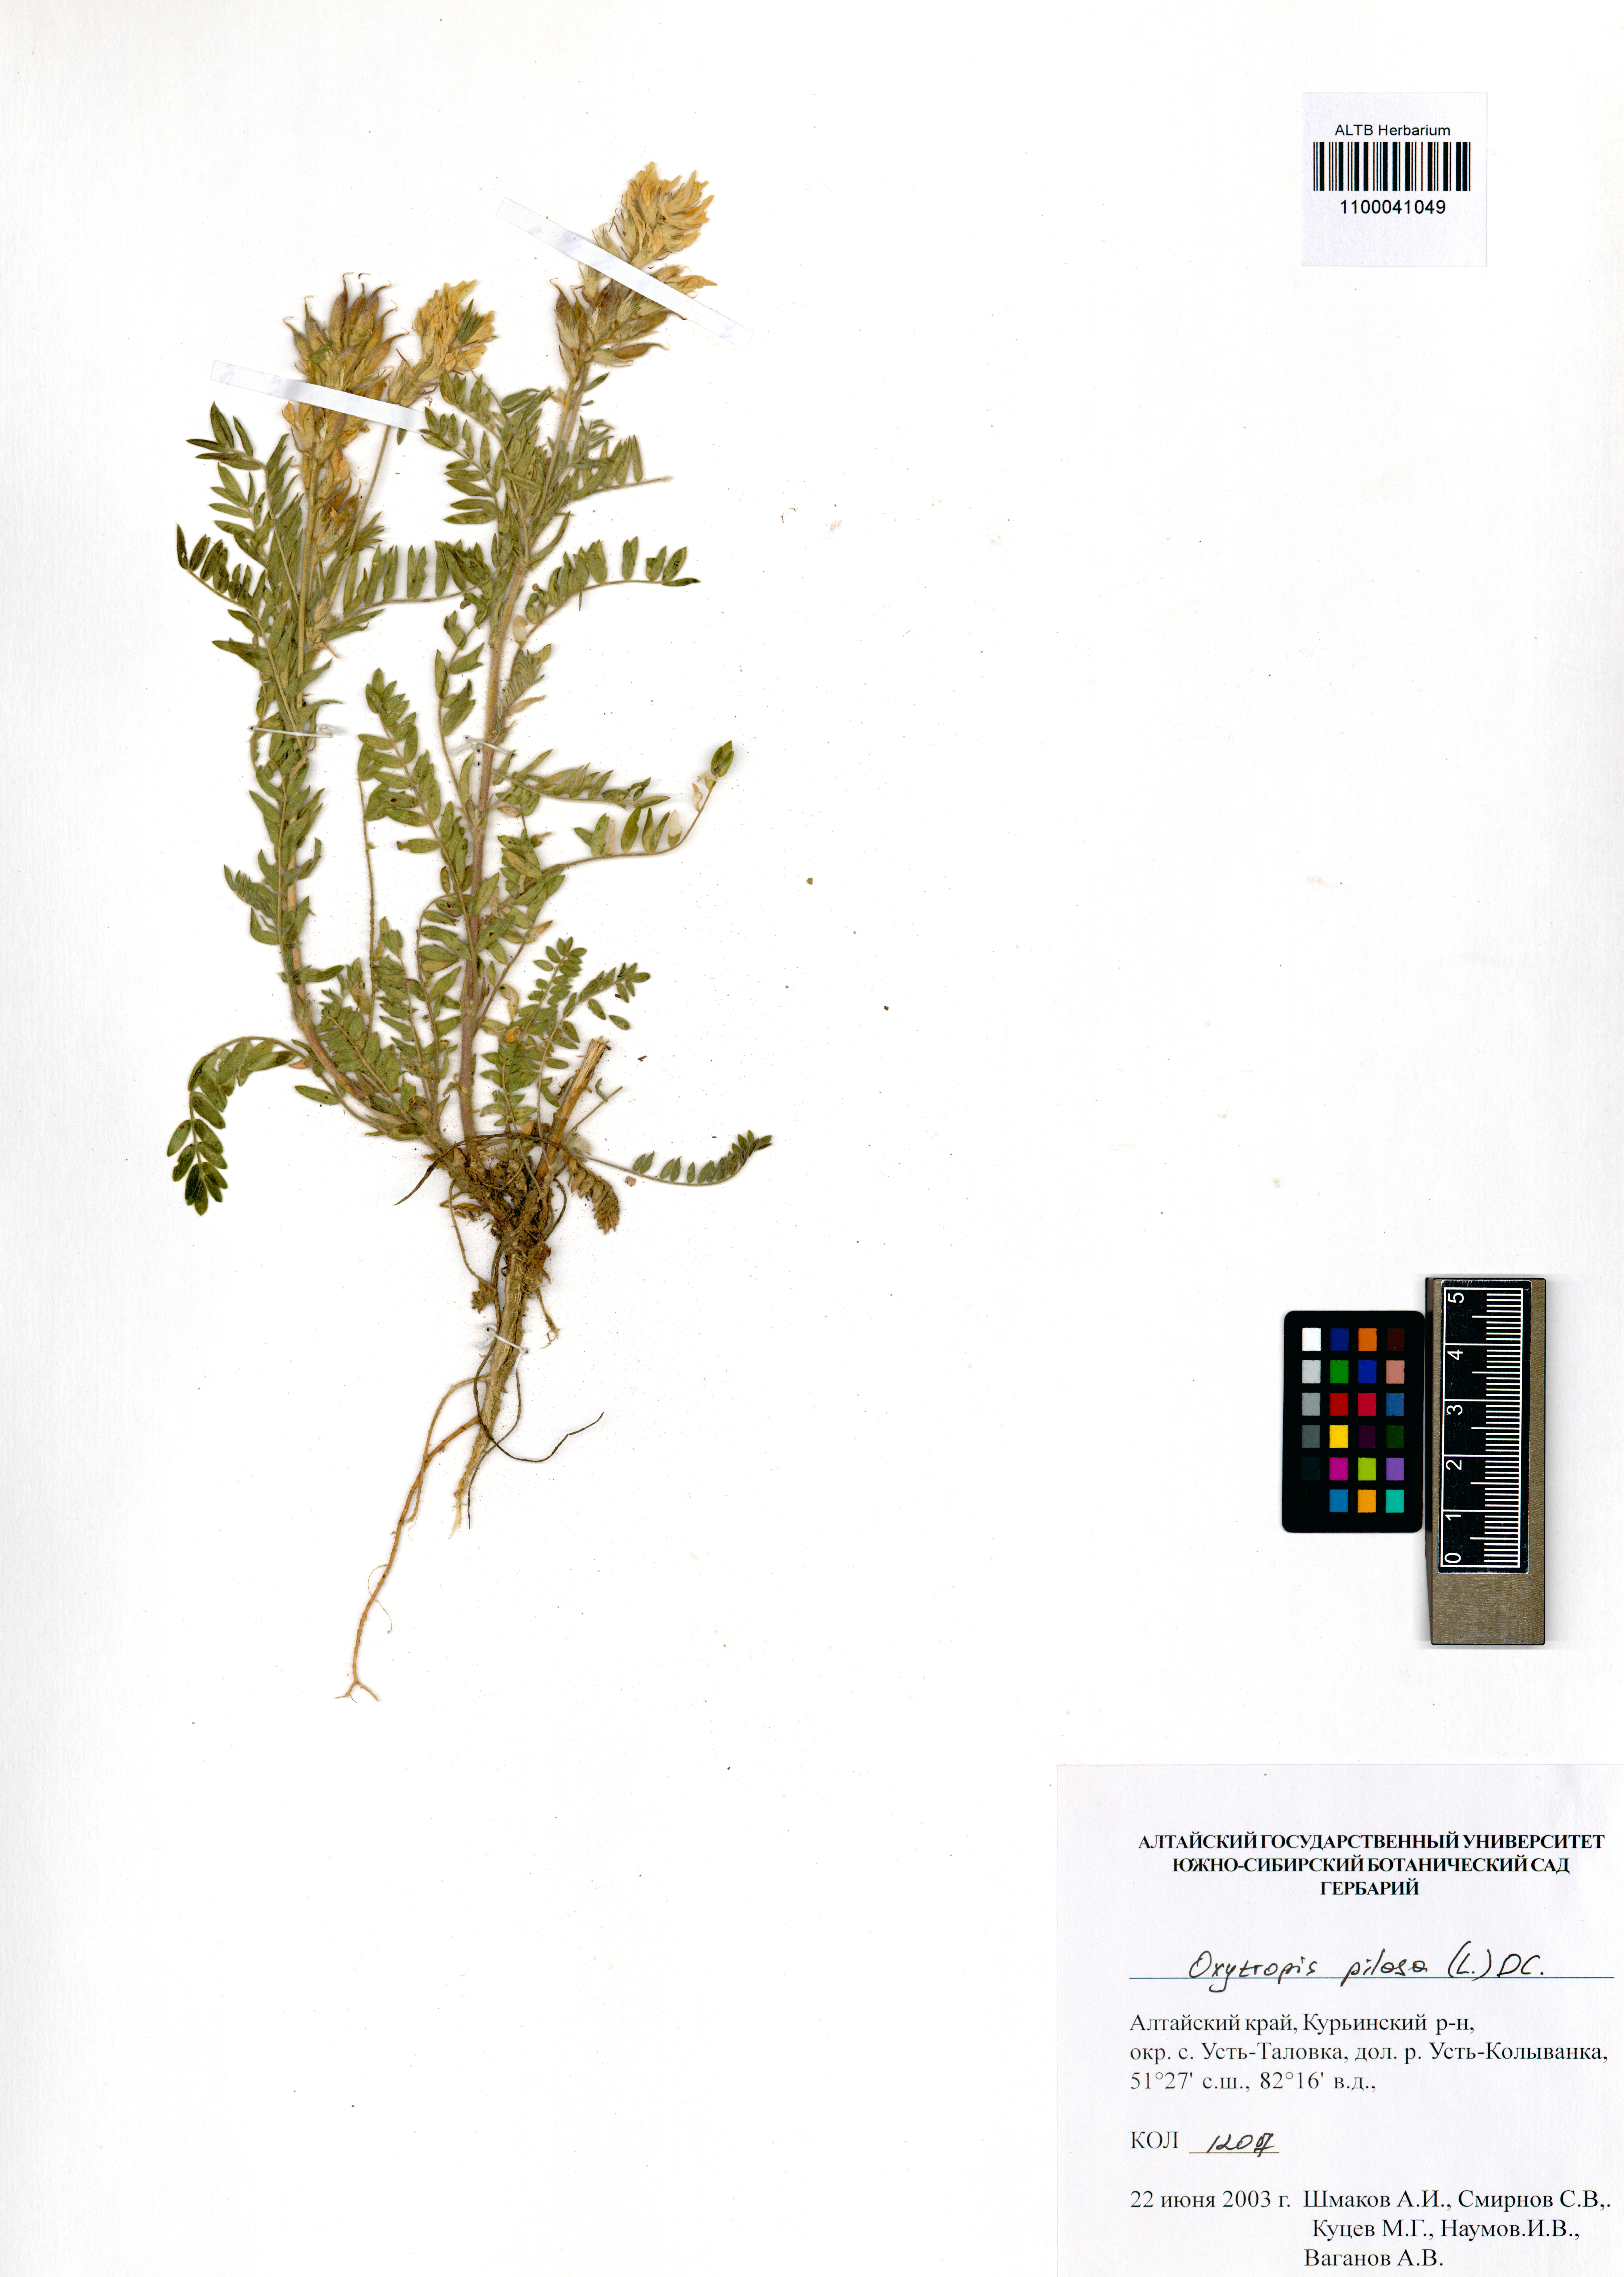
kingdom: Plantae
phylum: Tracheophyta
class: Magnoliopsida
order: Fabales
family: Fabaceae
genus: Oxytropis
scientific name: Oxytropis pilosa
